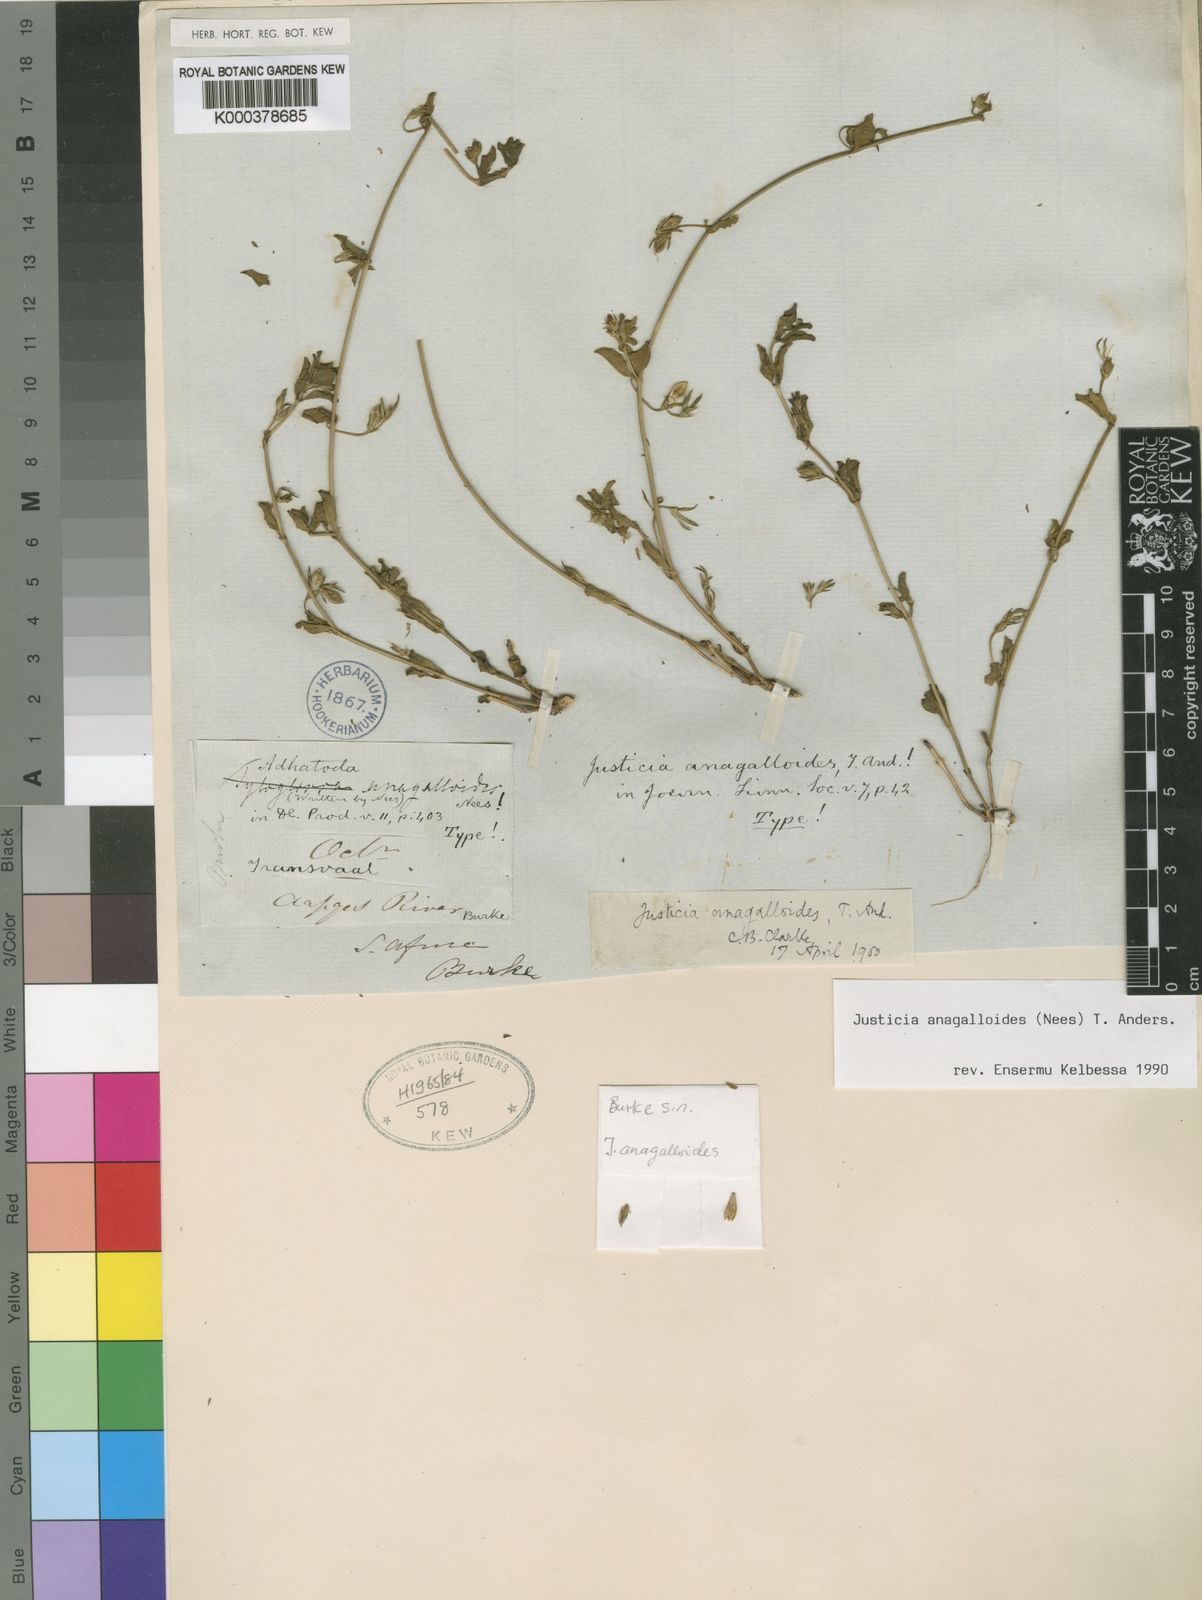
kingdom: Plantae
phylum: Tracheophyta
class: Magnoliopsida
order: Lamiales
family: Acanthaceae
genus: Justicia
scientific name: Justicia anagalloides
